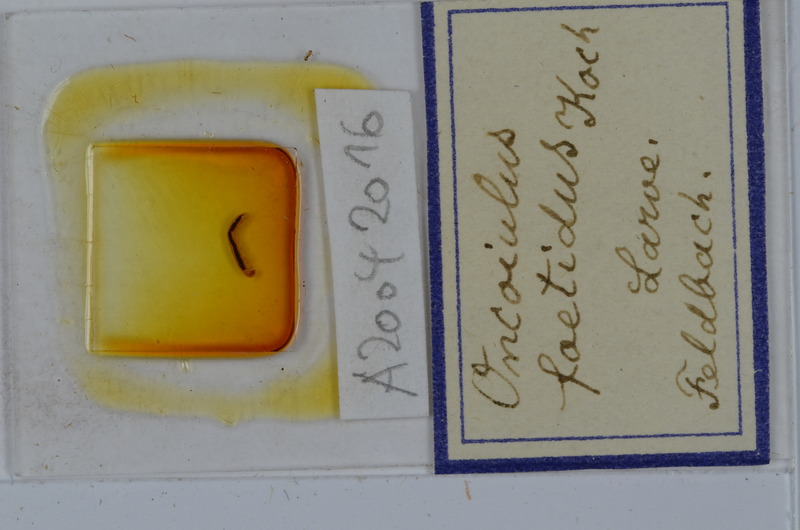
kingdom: Animalia
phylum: Arthropoda
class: Diplopoda
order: Julida
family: Julidae
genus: Unciger
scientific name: Unciger foetidus
